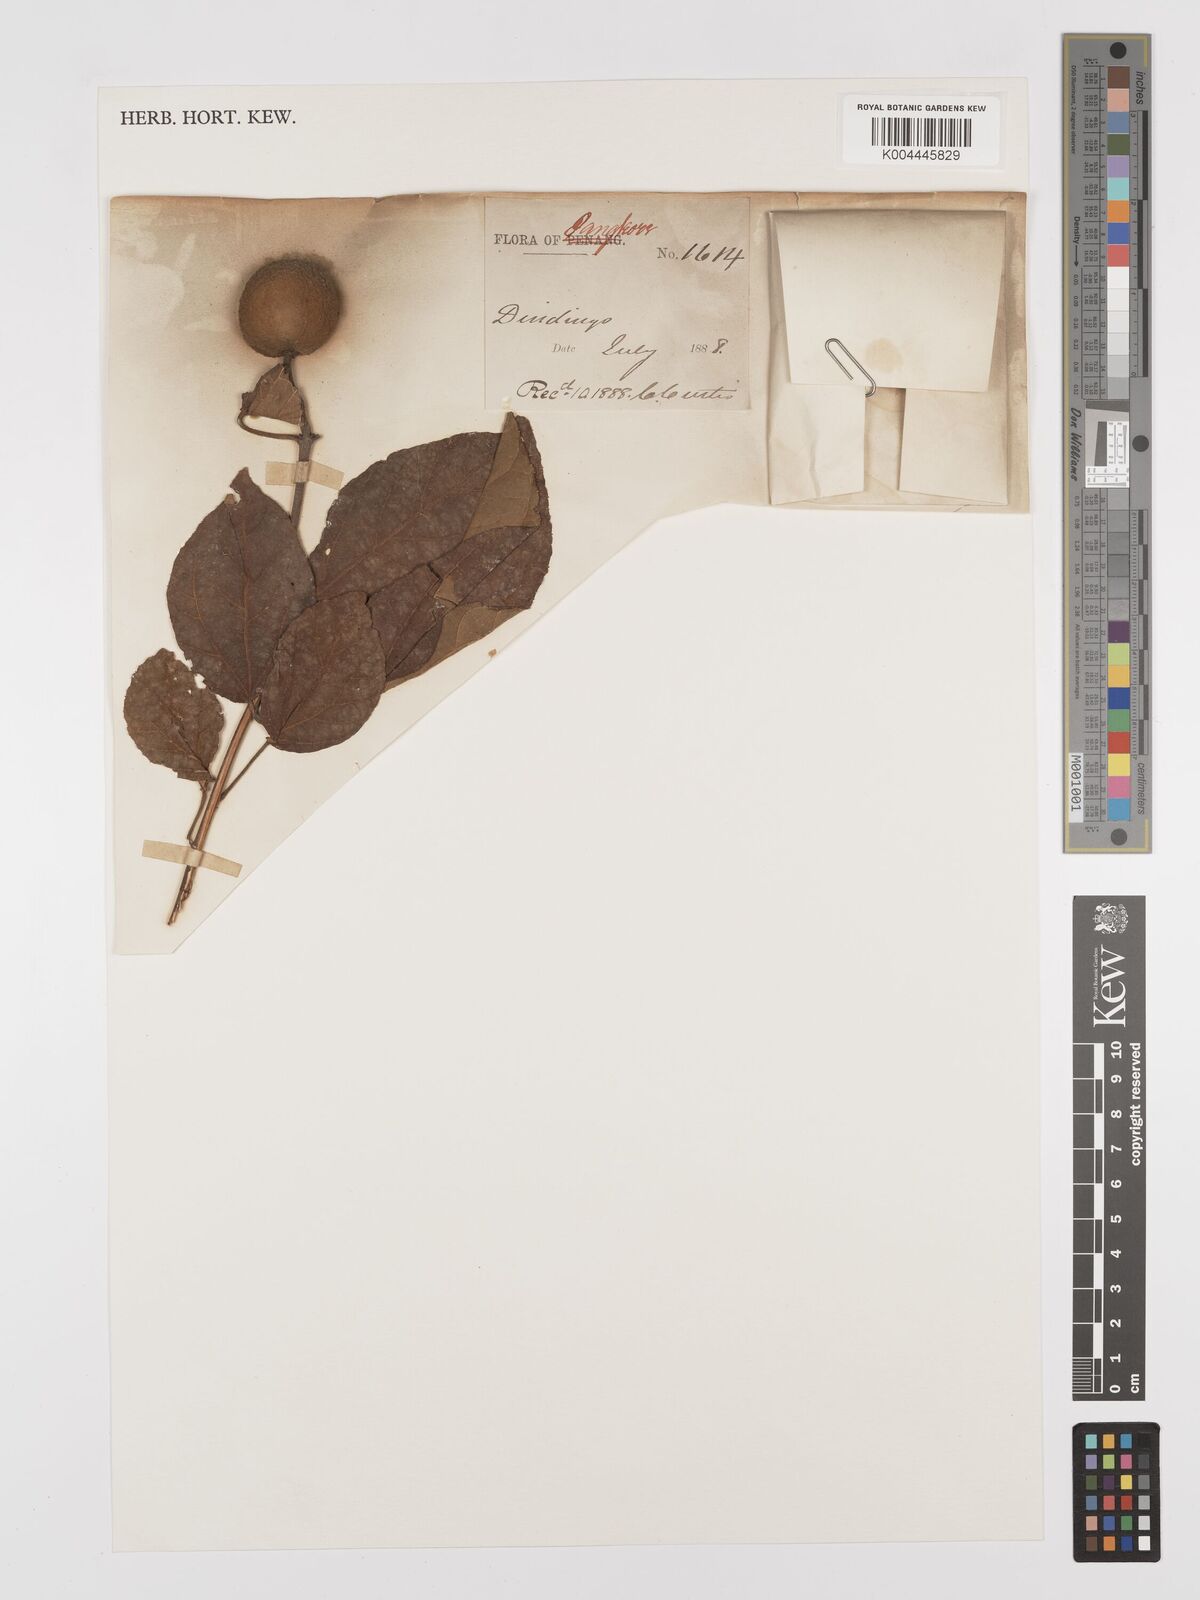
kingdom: Plantae
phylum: Tracheophyta
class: Magnoliopsida
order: Malpighiales
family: Euphorbiaceae
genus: Croton
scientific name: Croton caudatus
